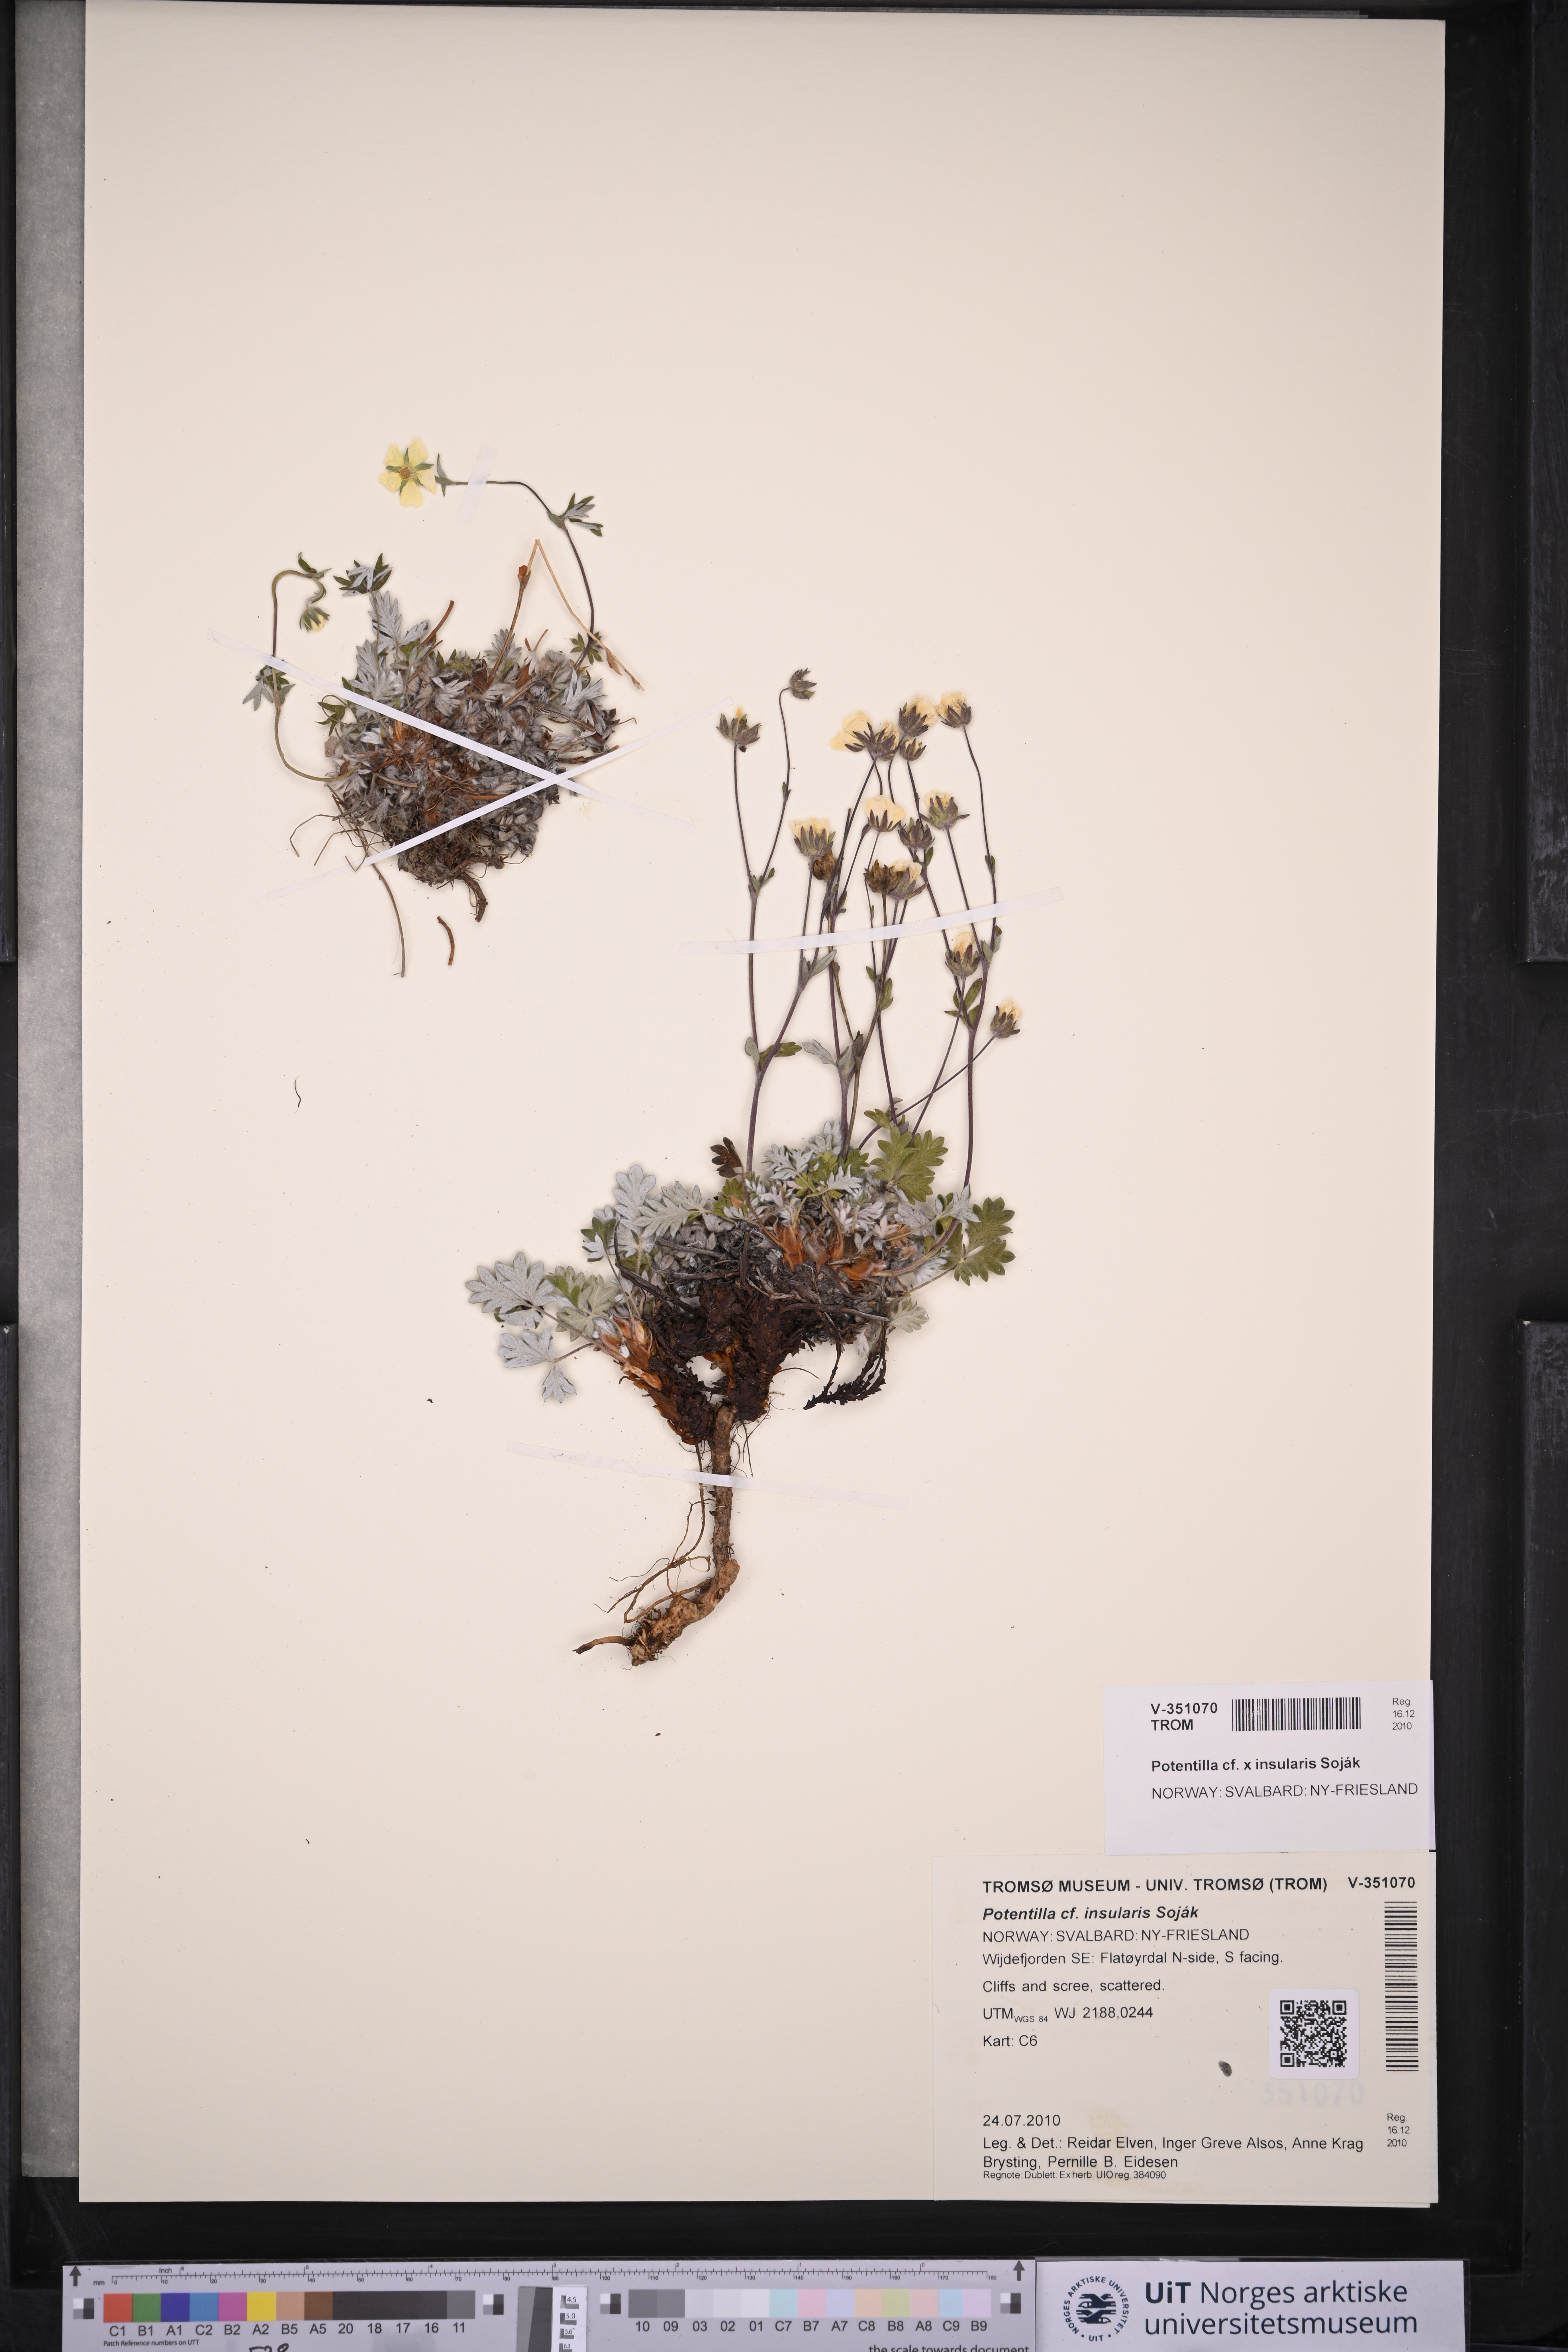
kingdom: Plantae
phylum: Tracheophyta
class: Magnoliopsida
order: Rosales
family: Rosaceae
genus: Potentilla
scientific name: Potentilla insularis
